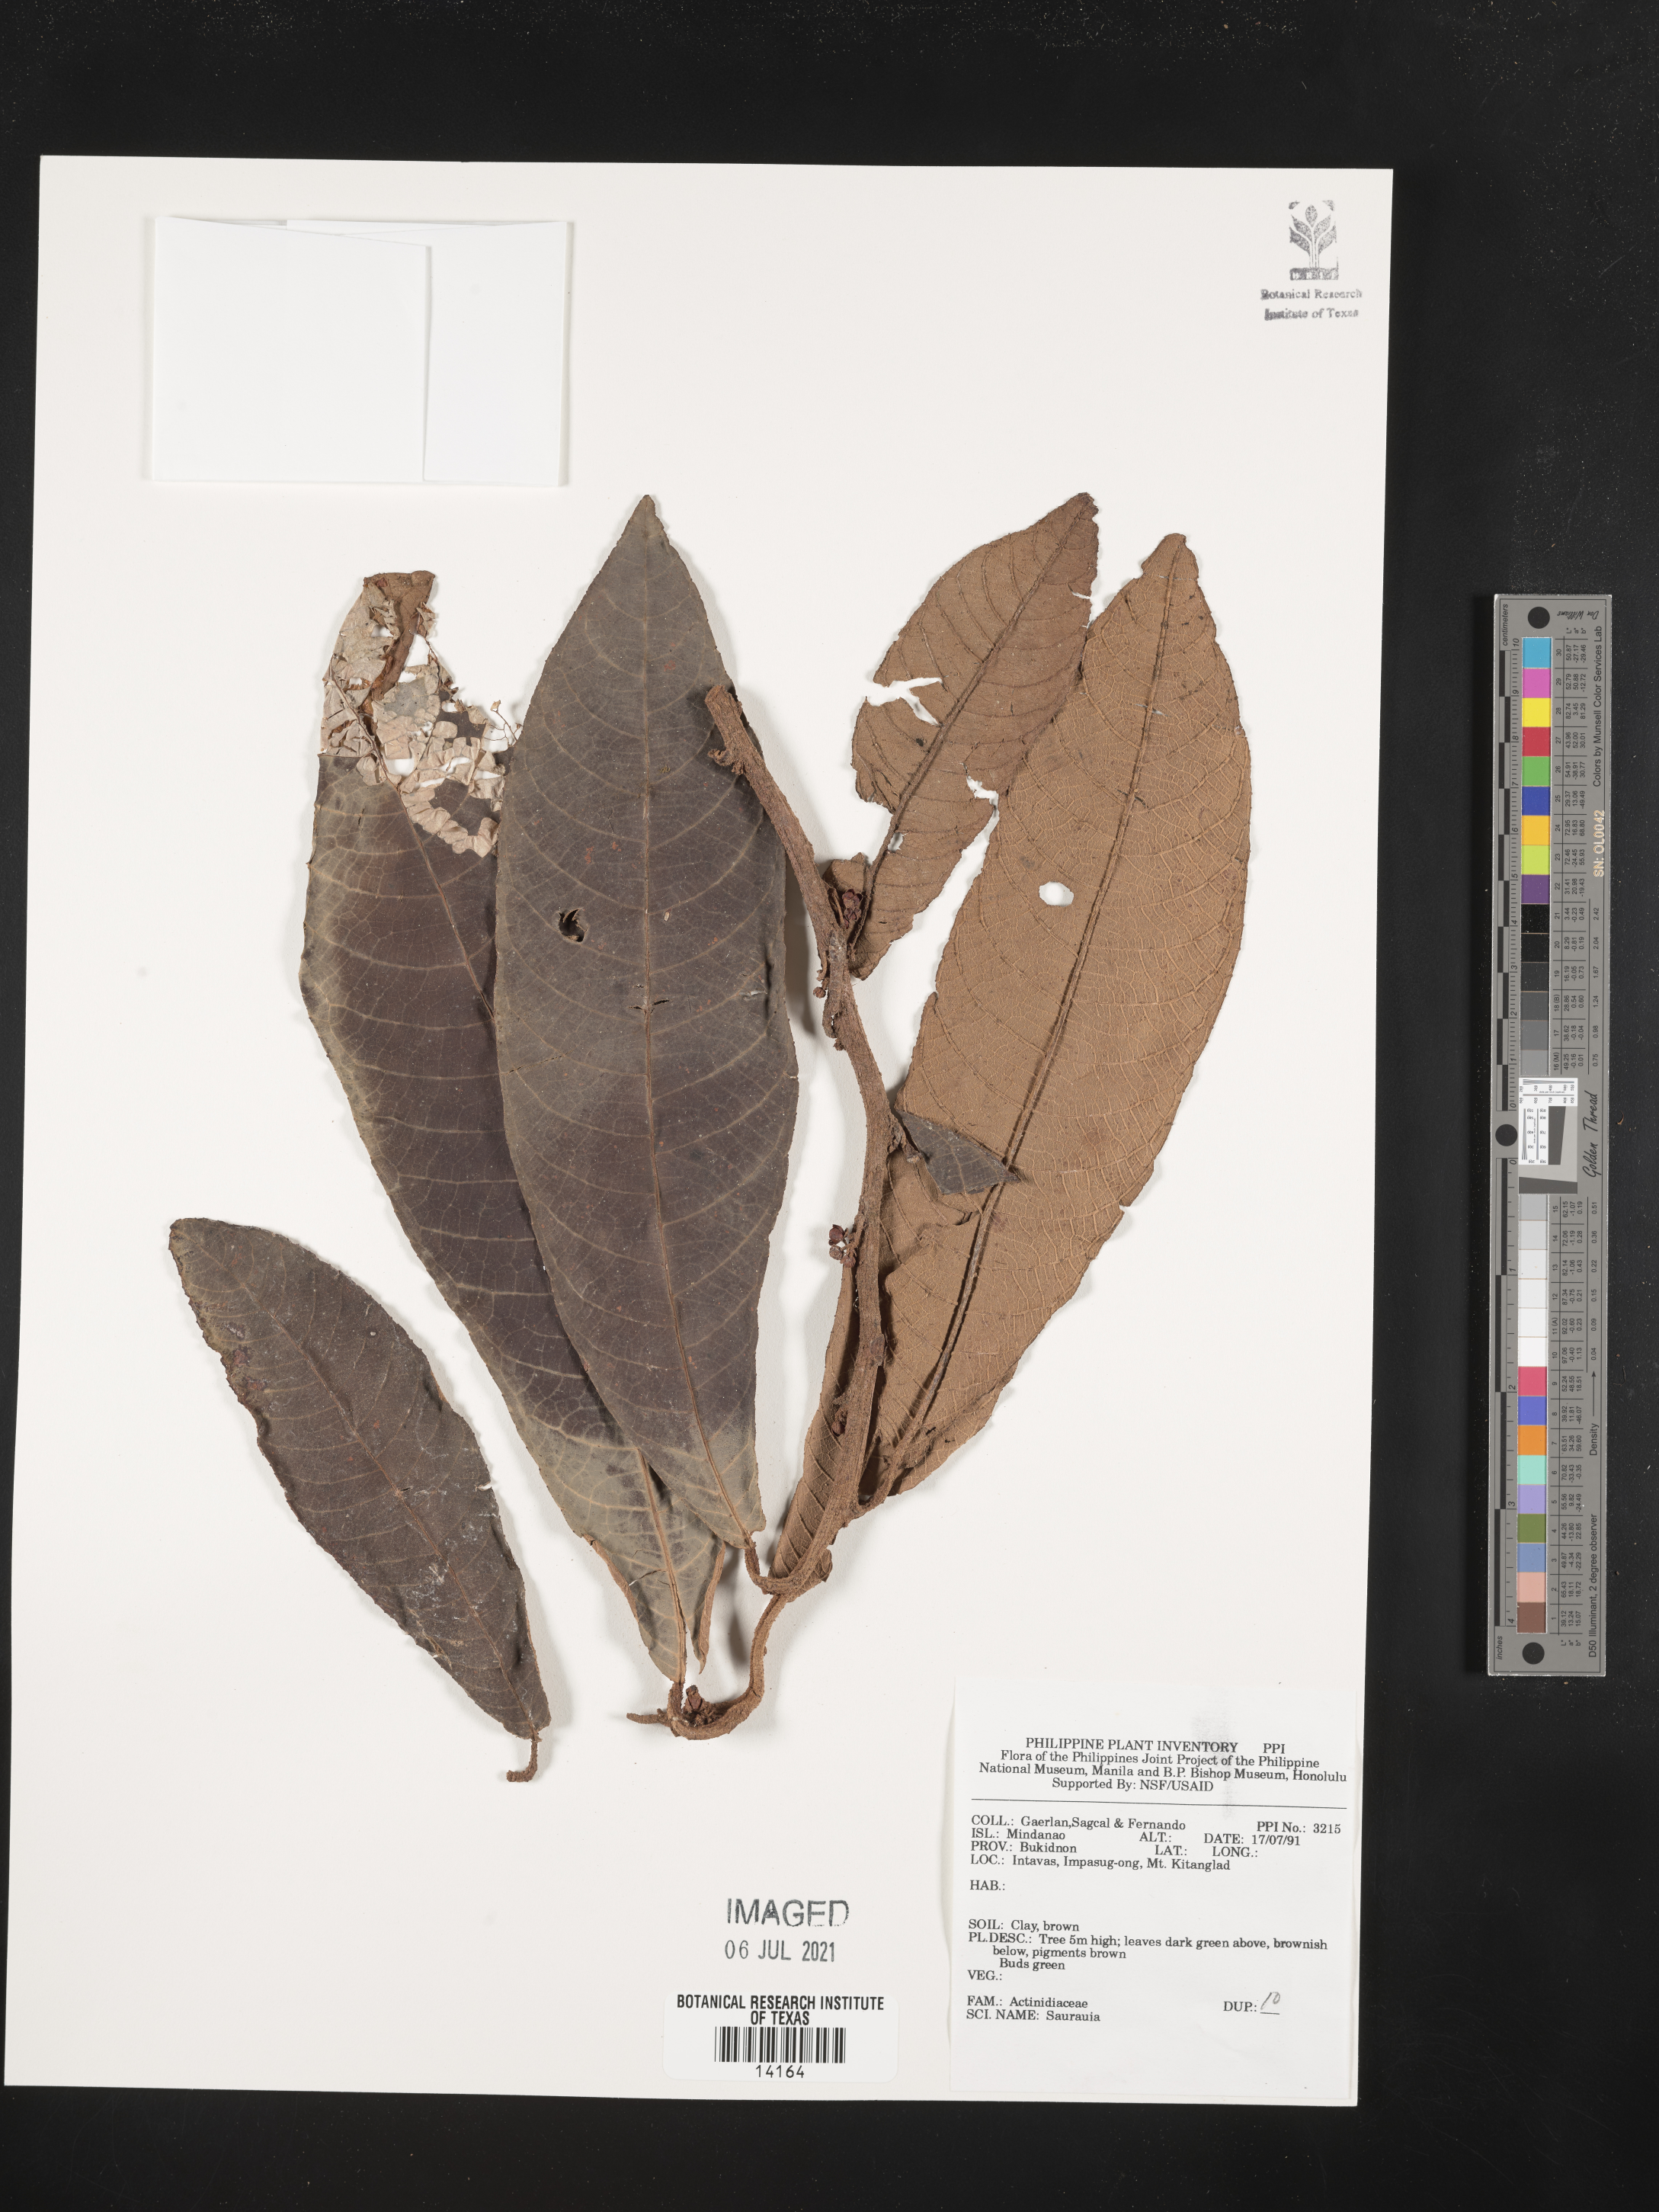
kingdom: Plantae
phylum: Tracheophyta
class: Magnoliopsida
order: Ericales
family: Actinidiaceae
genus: Saurauia
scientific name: Saurauia
